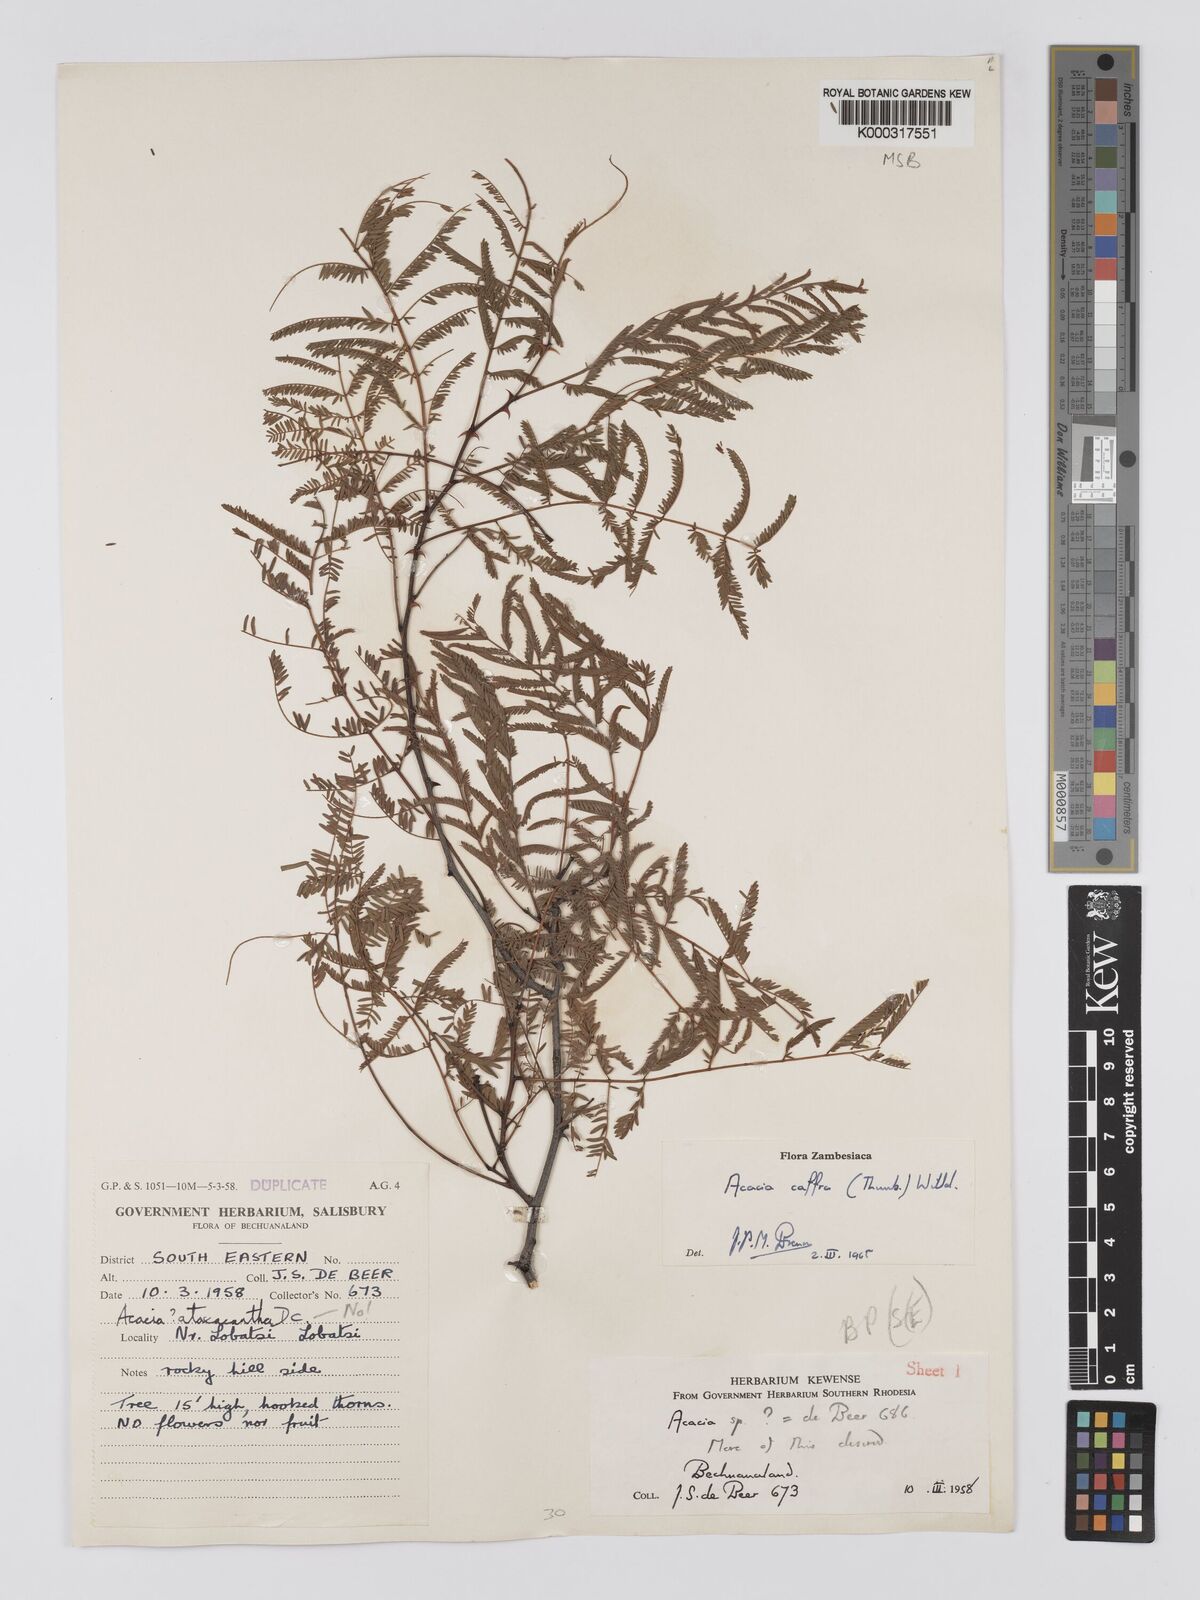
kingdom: Plantae
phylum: Tracheophyta
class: Magnoliopsida
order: Fabales
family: Fabaceae
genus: Senegalia
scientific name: Senegalia caffra
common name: Cat thorn
